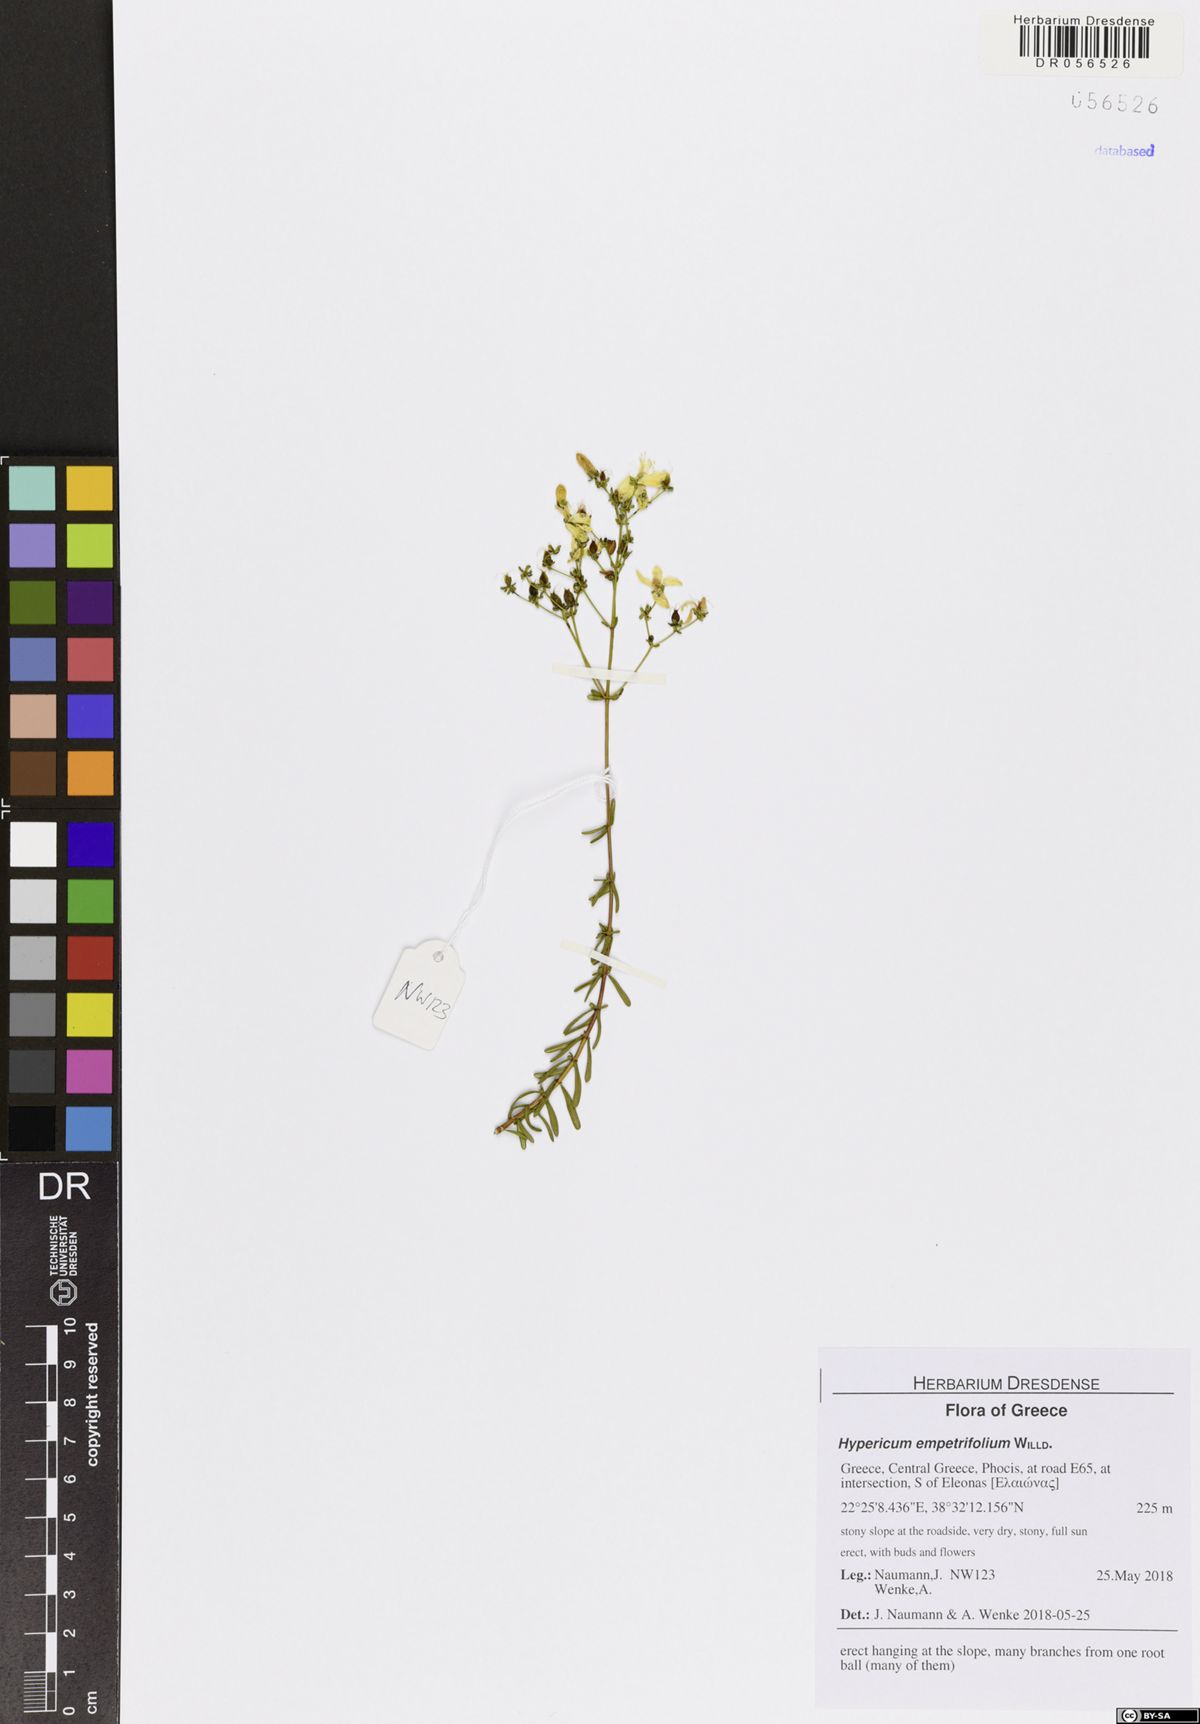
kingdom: Plantae
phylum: Tracheophyta
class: Magnoliopsida
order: Malpighiales
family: Hypericaceae
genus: Hypericum
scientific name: Hypericum empetrifolium
